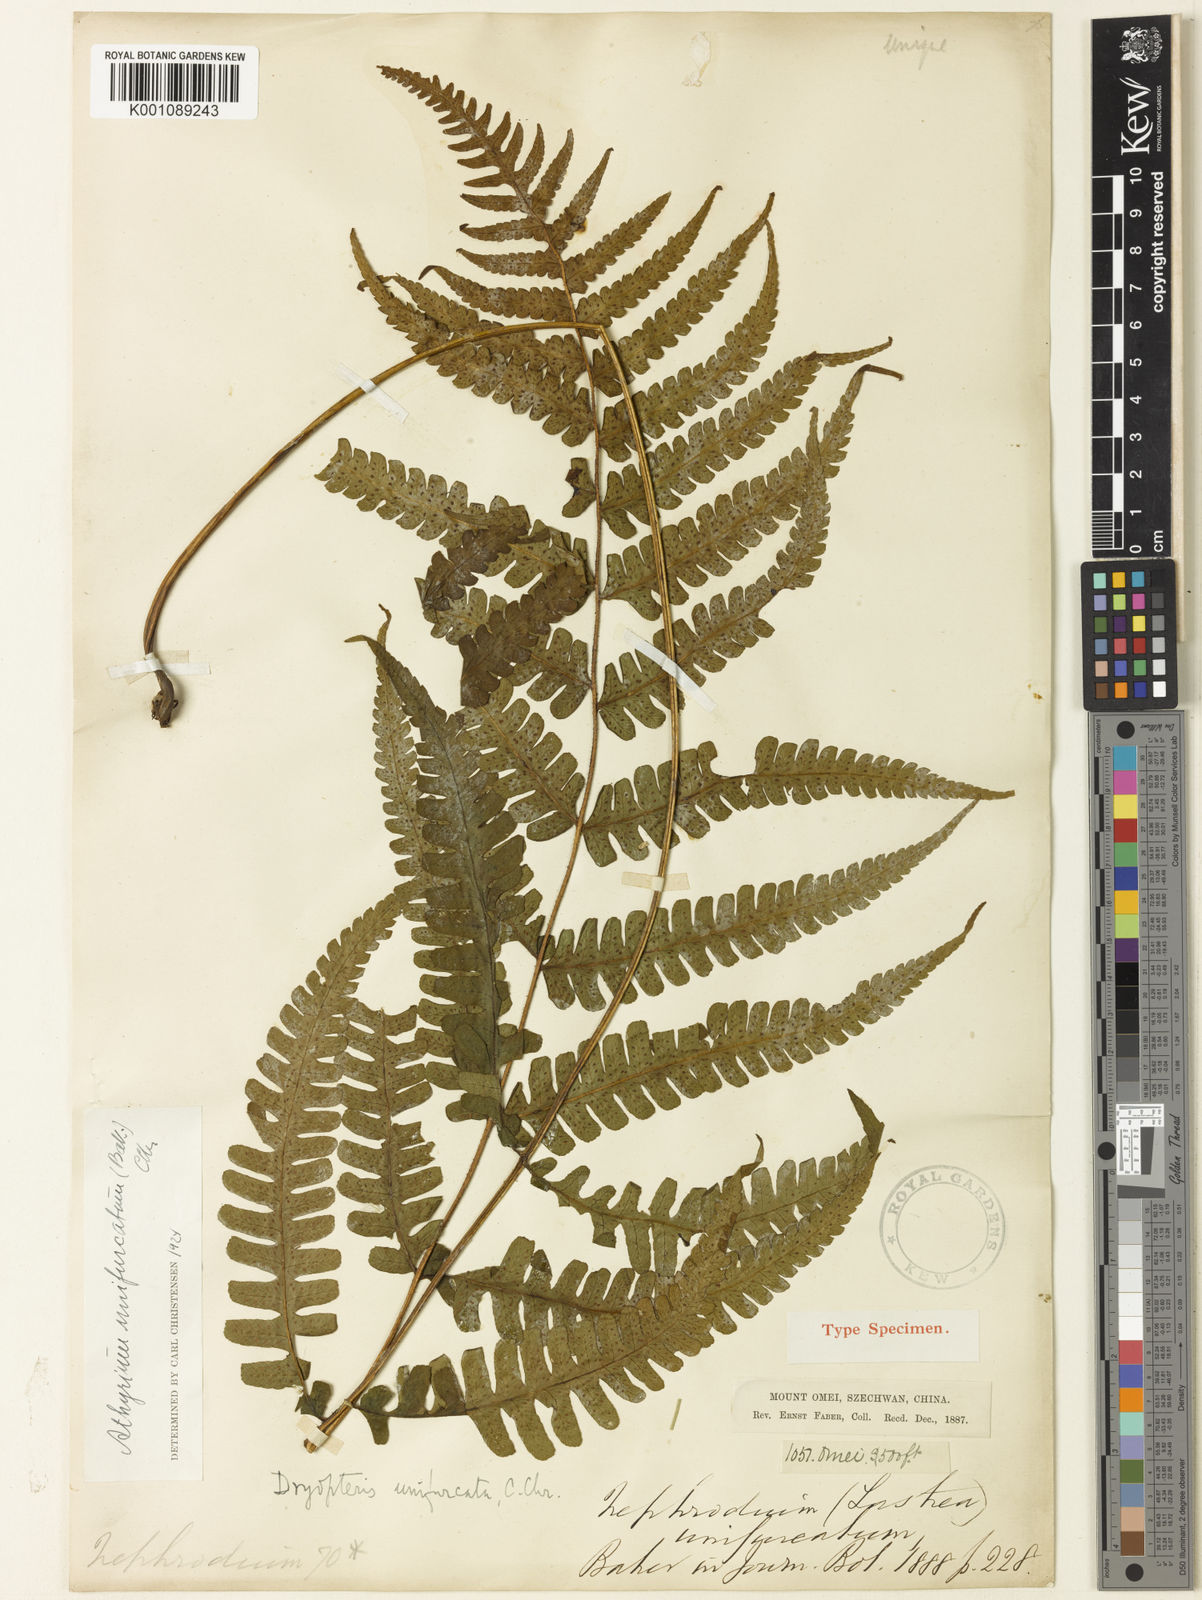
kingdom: Plantae
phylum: Tracheophyta
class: Polypodiopsida
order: Polypodiales
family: Athyriaceae
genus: Deparia
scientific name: Deparia unifurcata
